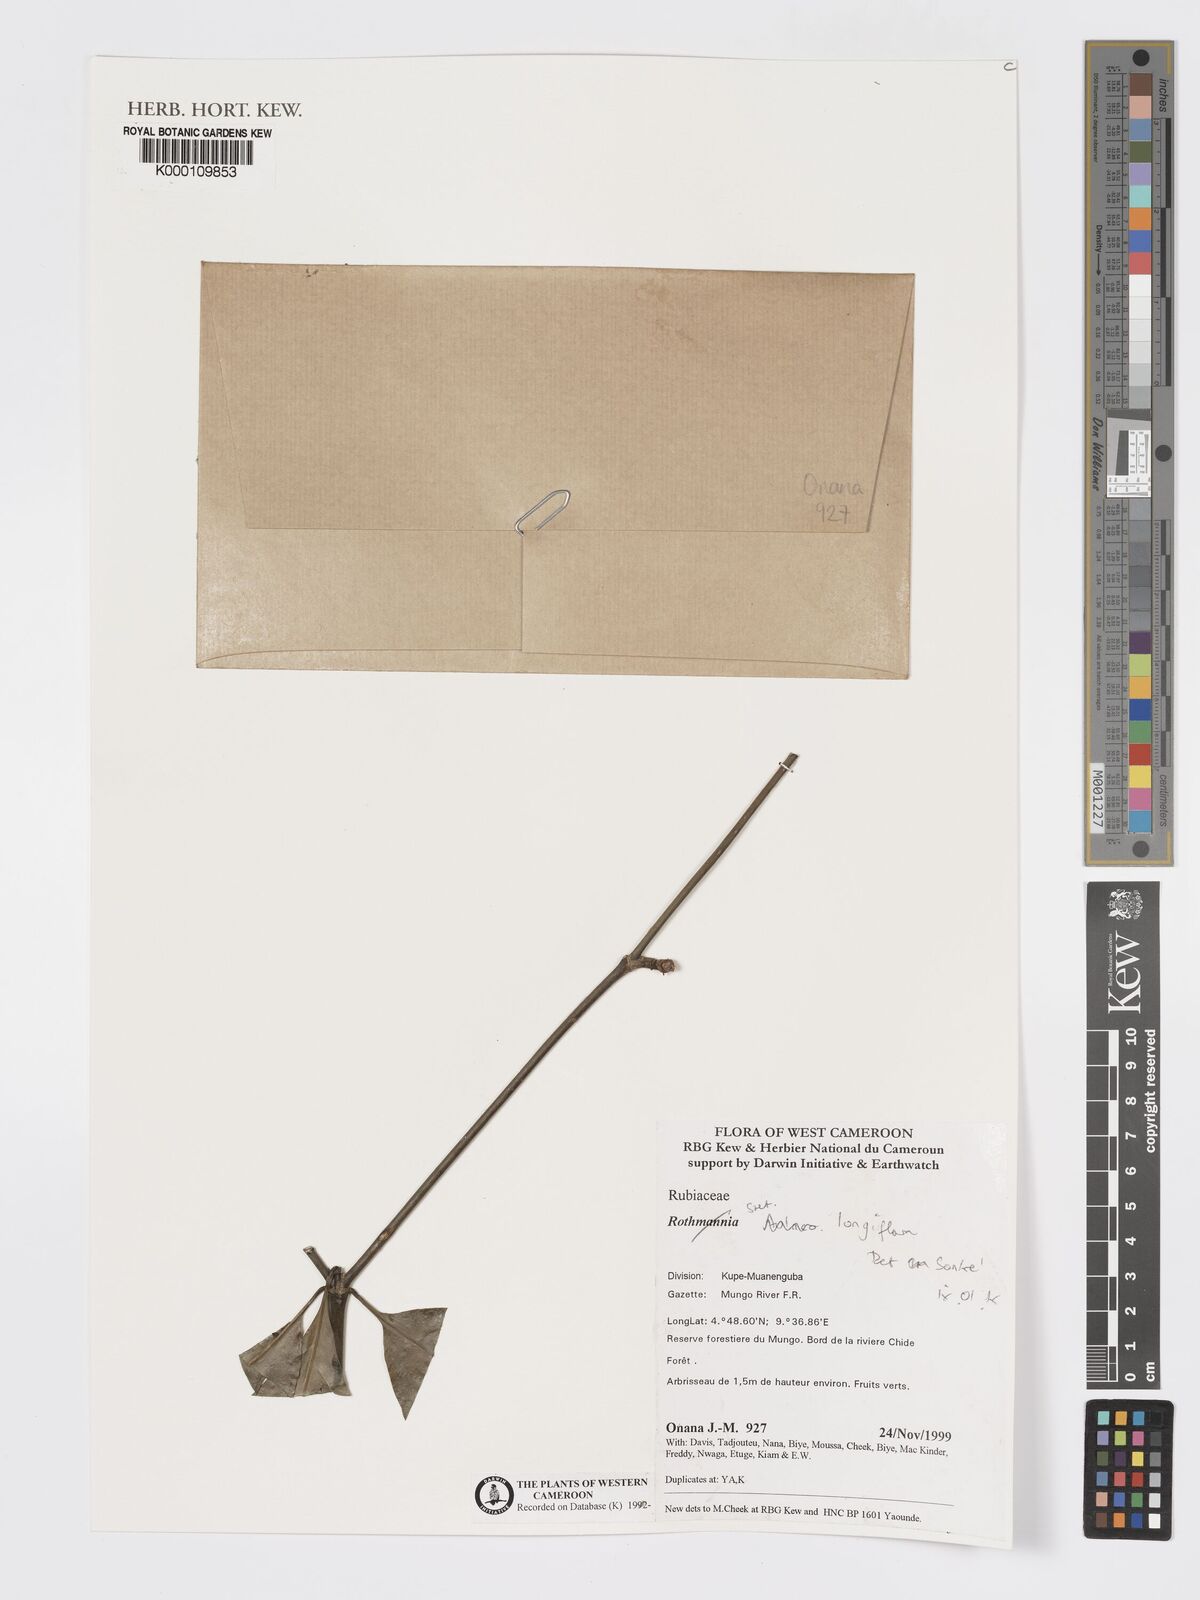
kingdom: Plantae
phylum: Tracheophyta
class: Magnoliopsida
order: Gentianales
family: Rubiaceae
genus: Rothmannia
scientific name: Rothmannia longiflora
